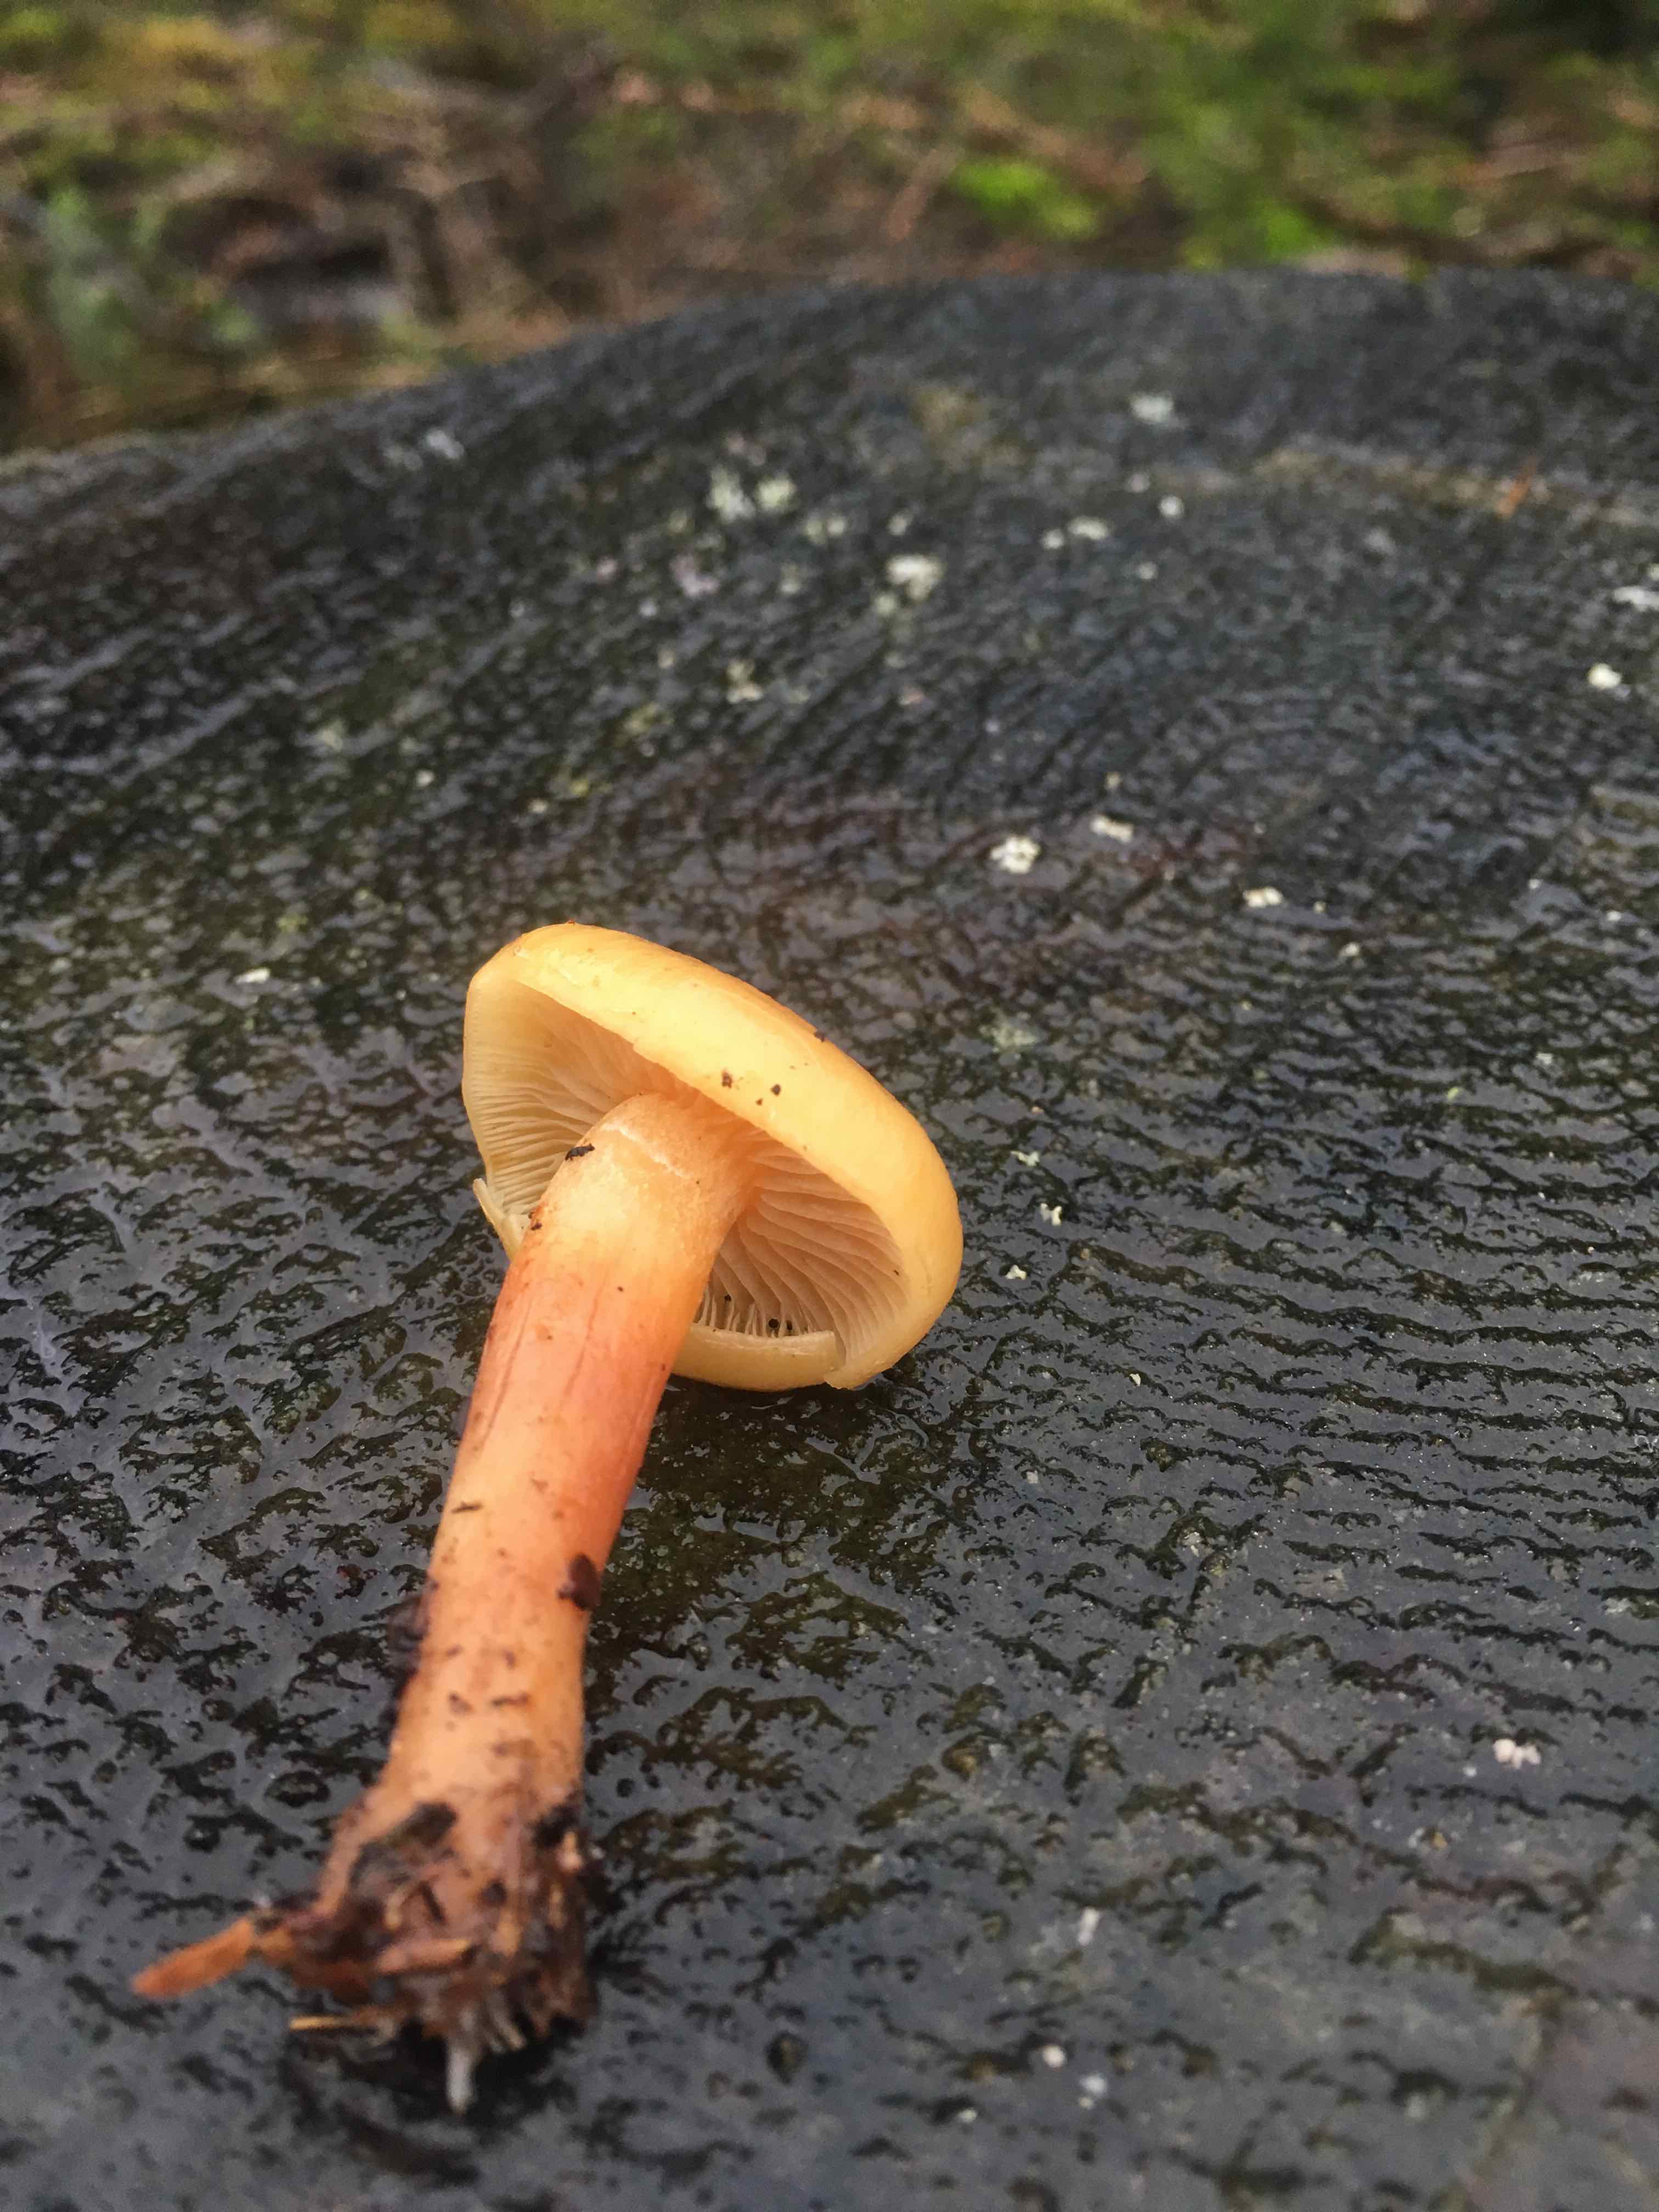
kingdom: Fungi
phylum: Basidiomycota
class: Agaricomycetes
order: Agaricales
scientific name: Agaricales
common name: champignonordenen
